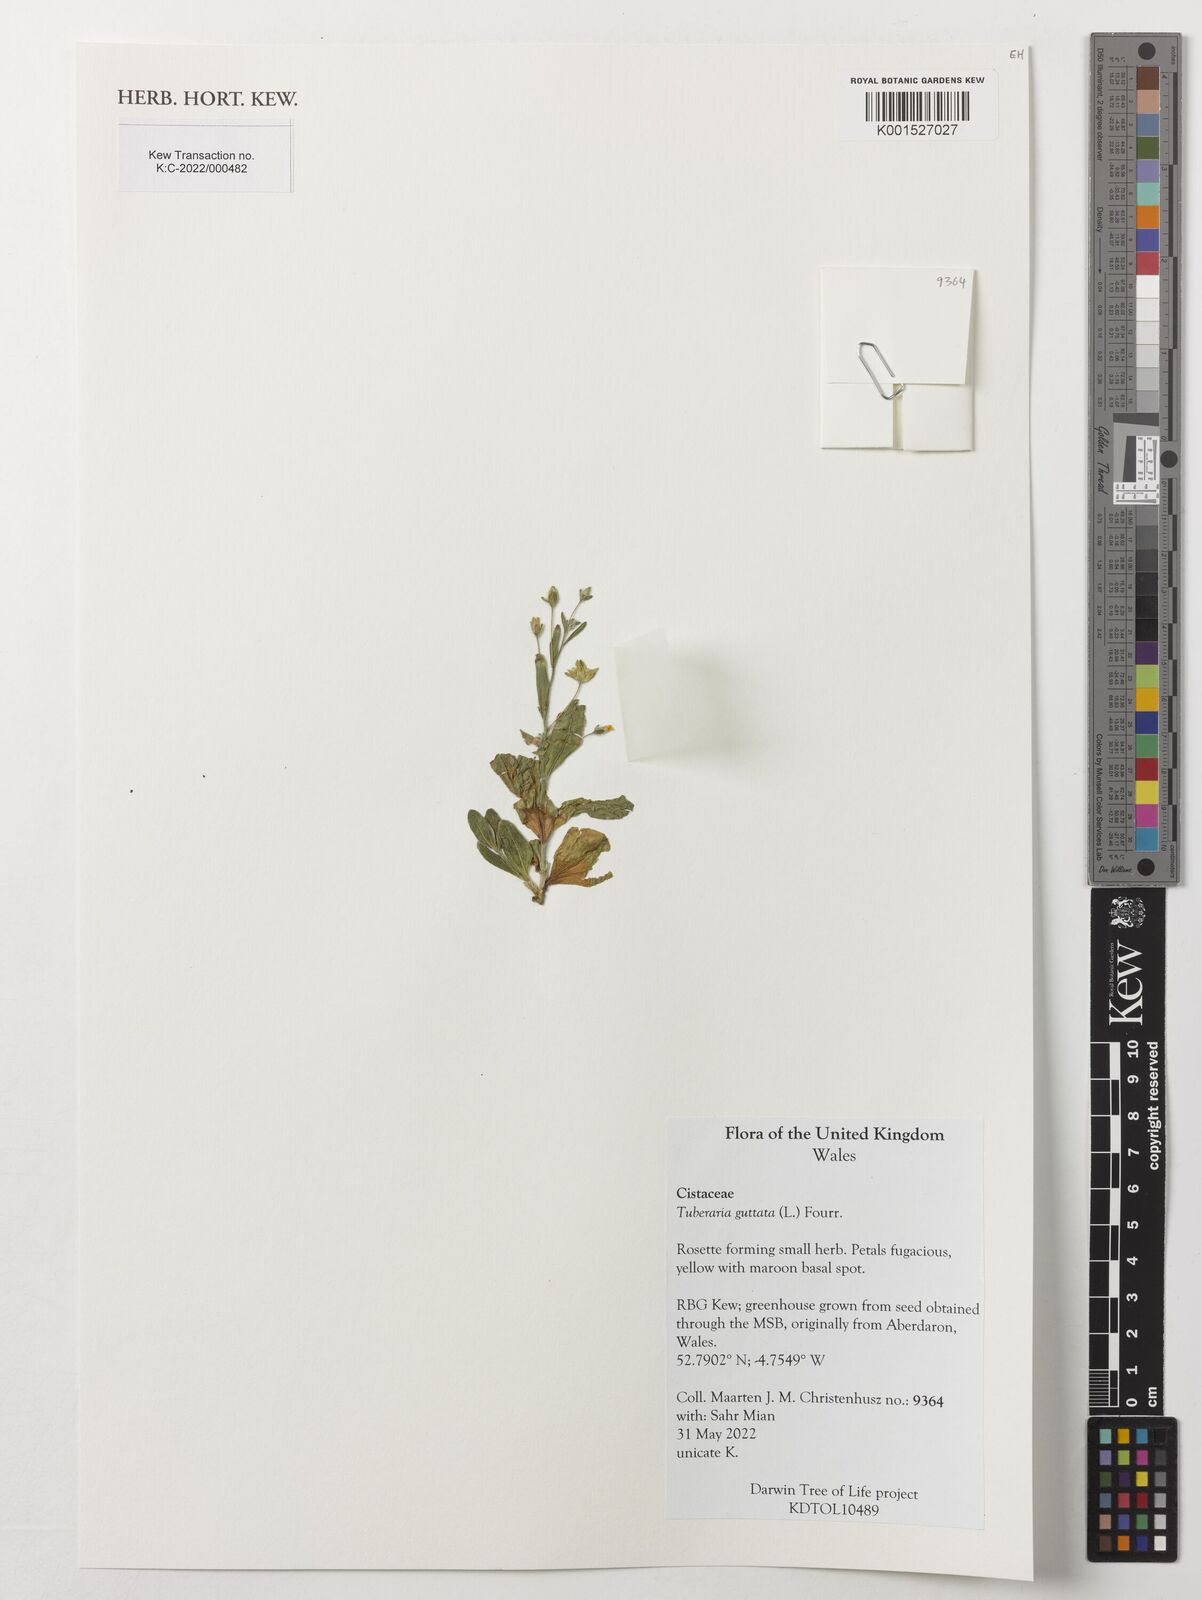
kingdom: Plantae
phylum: Tracheophyta
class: Magnoliopsida
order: Malvales
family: Cistaceae
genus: Tuberaria
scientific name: Tuberaria guttata
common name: Spotted rock-rose
